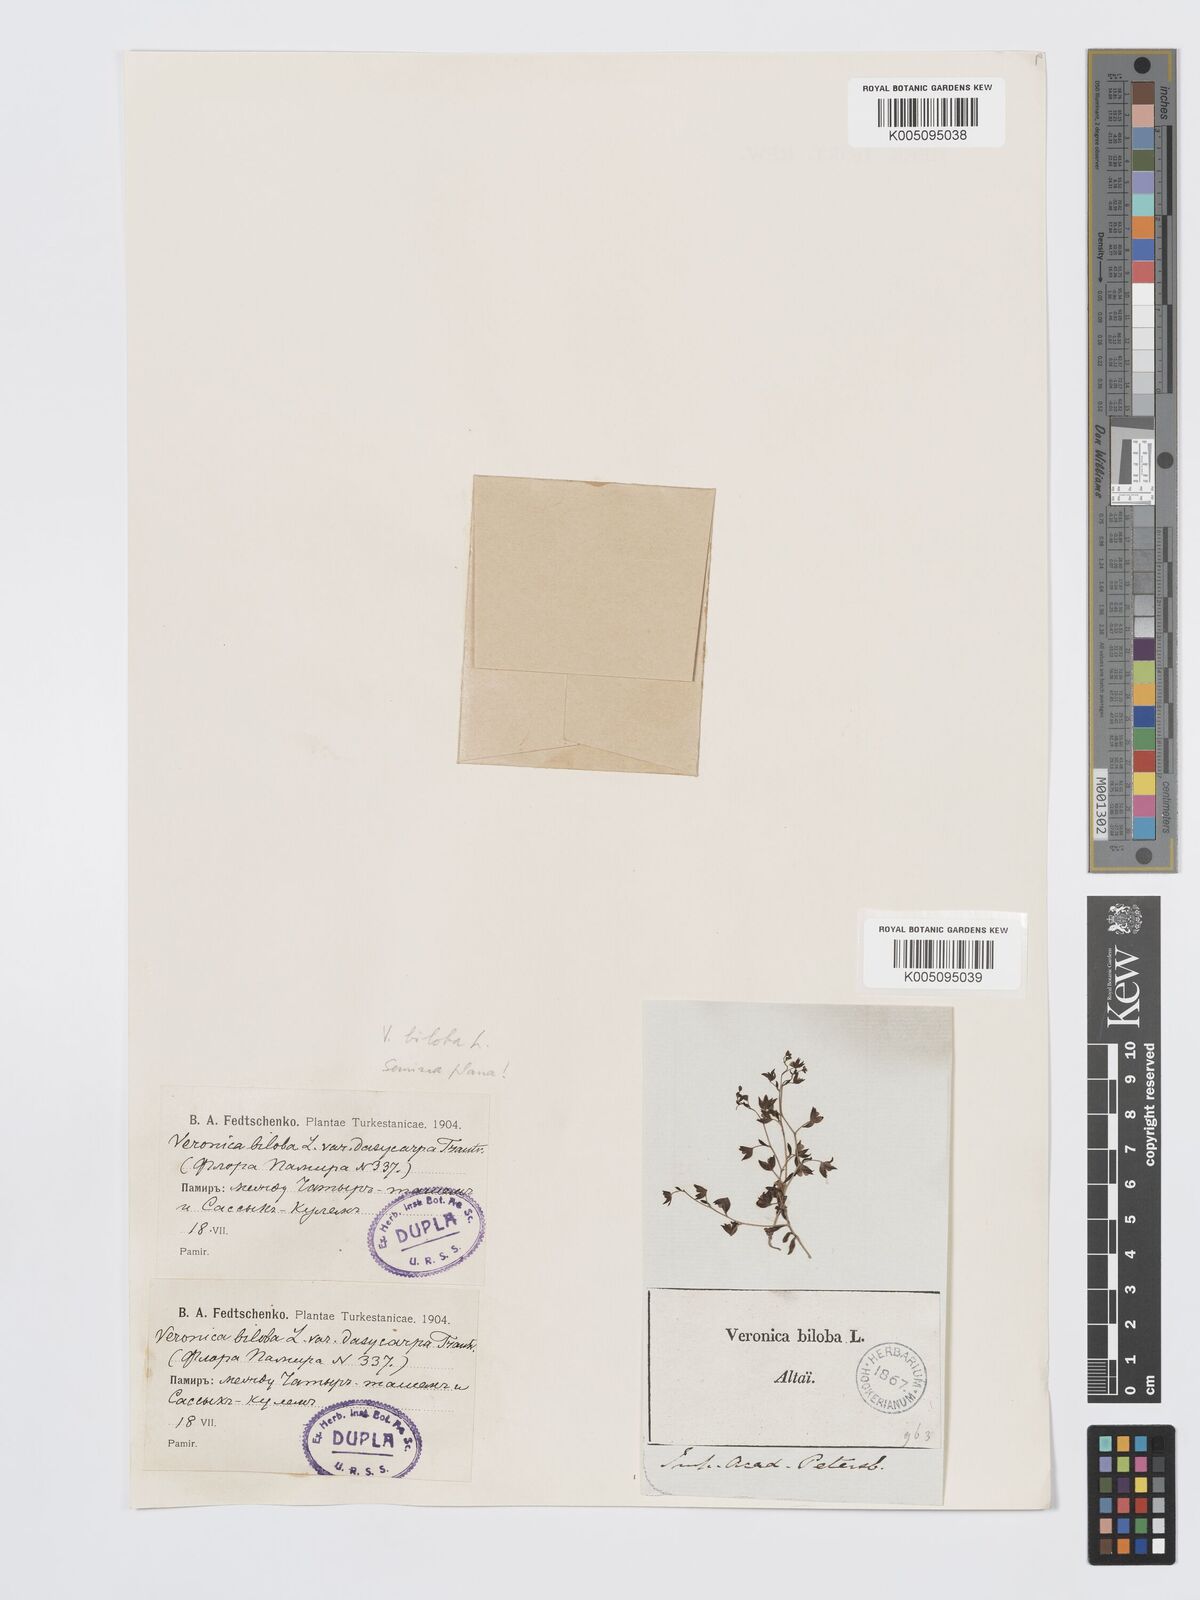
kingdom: Plantae
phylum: Tracheophyta
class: Magnoliopsida
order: Lamiales
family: Plantaginaceae
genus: Veronica
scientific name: Veronica biloba
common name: Twolobe speedwell
